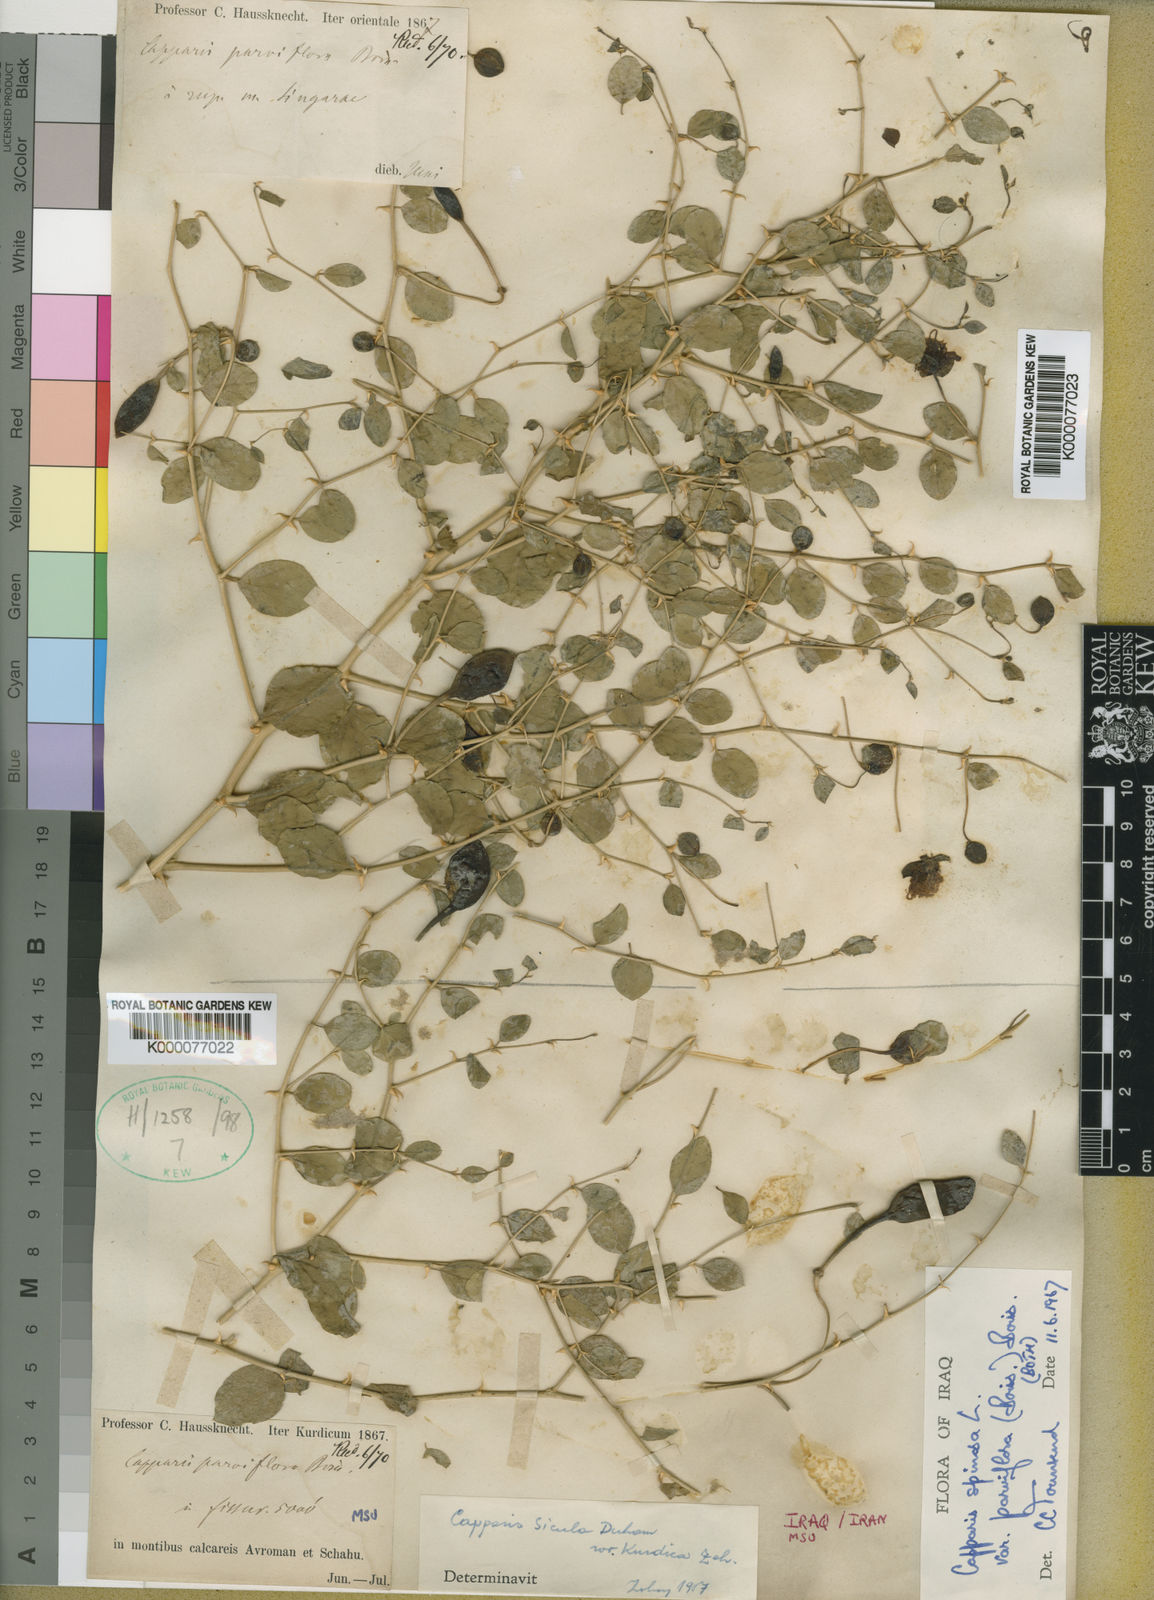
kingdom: Plantae
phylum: Tracheophyta
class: Magnoliopsida
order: Brassicales
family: Capparaceae
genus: Capparis
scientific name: Capparis spinosa
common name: Caper
